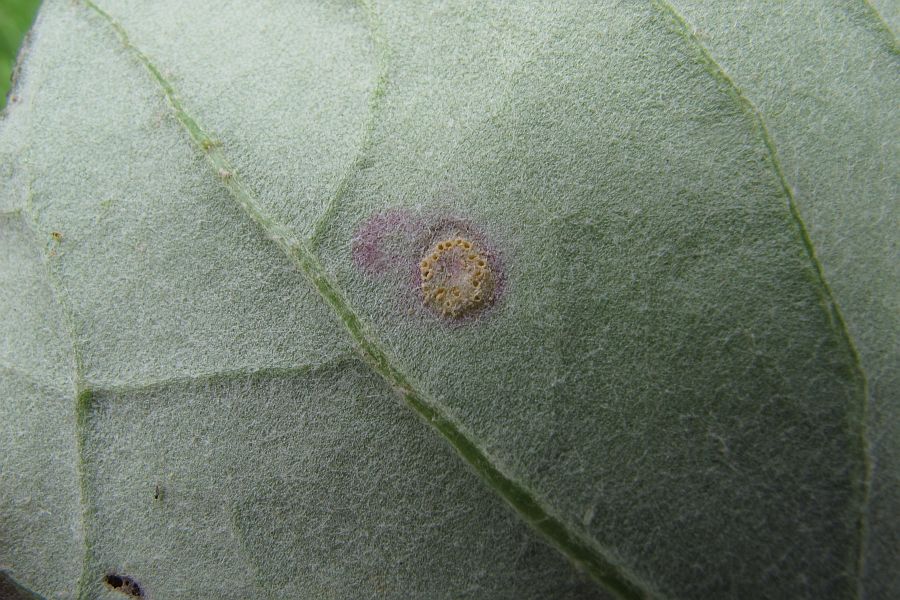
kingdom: Fungi
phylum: Basidiomycota
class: Pucciniomycetes
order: Pucciniales
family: Pucciniaceae
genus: Puccinia
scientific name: Puccinia poarum
